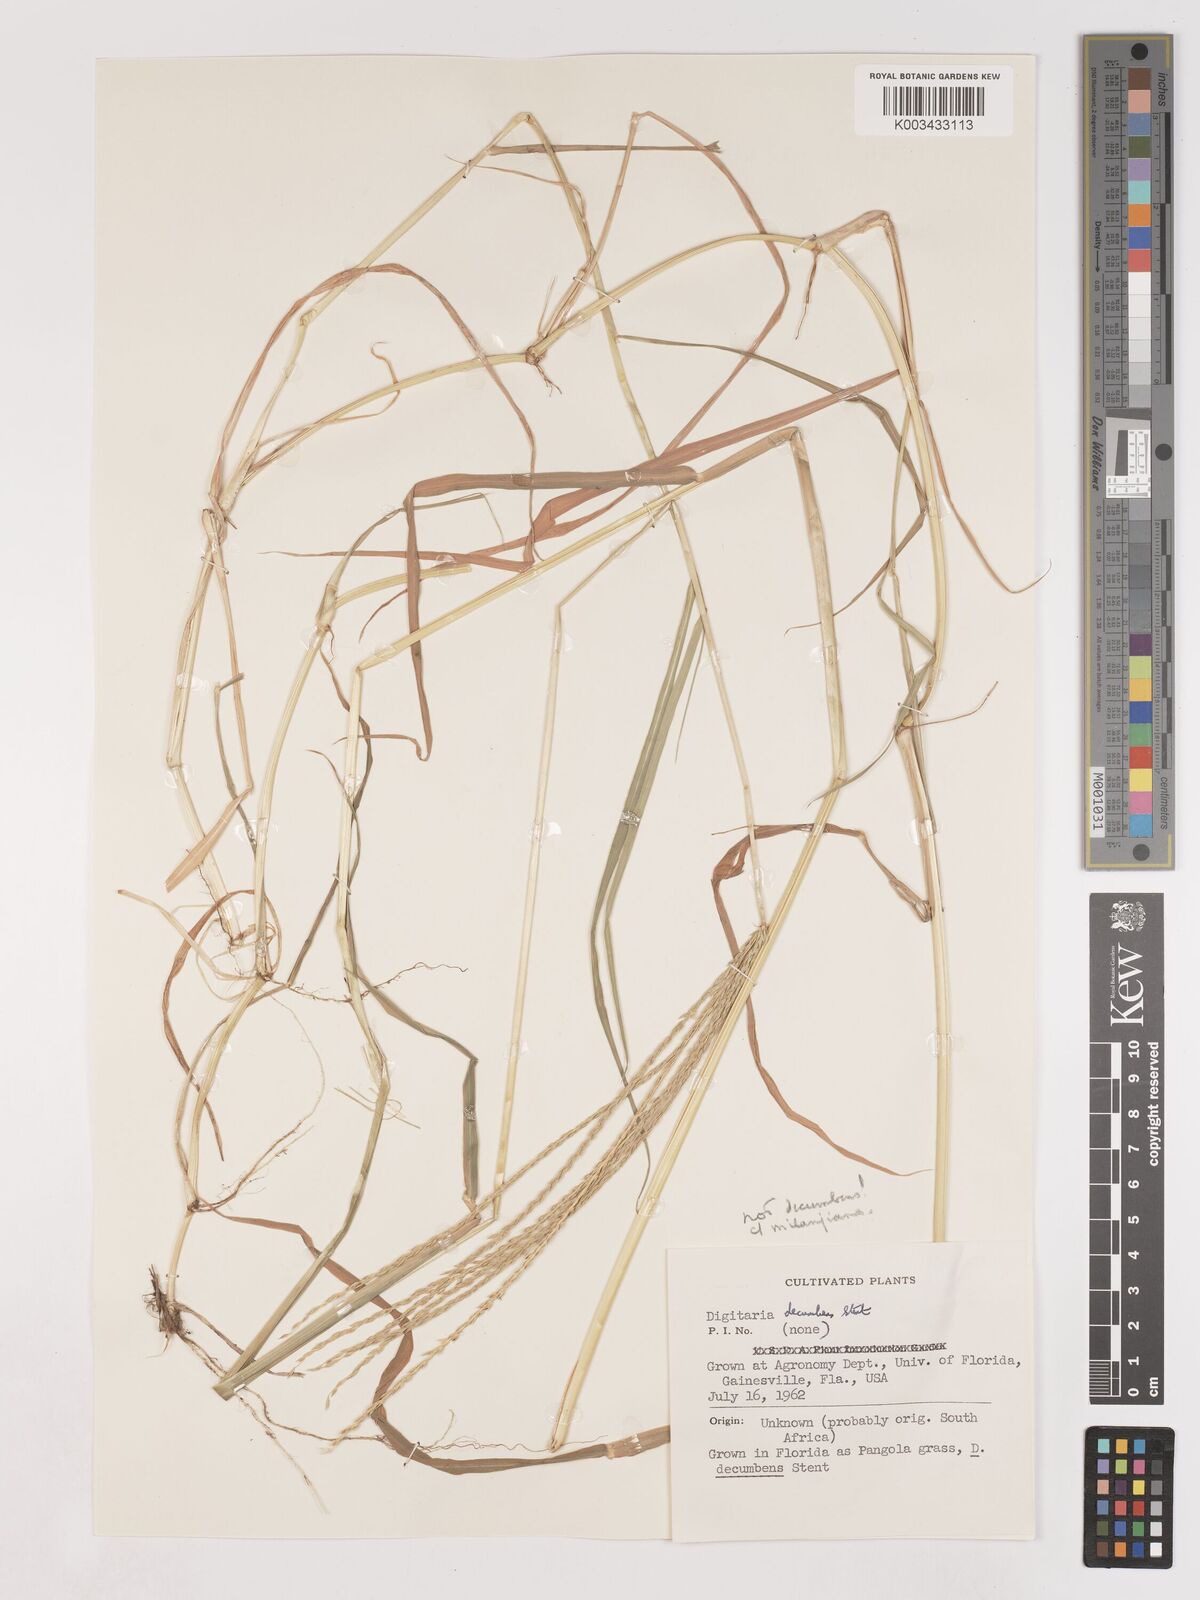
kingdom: Plantae
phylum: Tracheophyta
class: Liliopsida
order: Poales
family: Poaceae
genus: Digitaria
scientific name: Digitaria milanjiana
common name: Madagascar crabgrass
